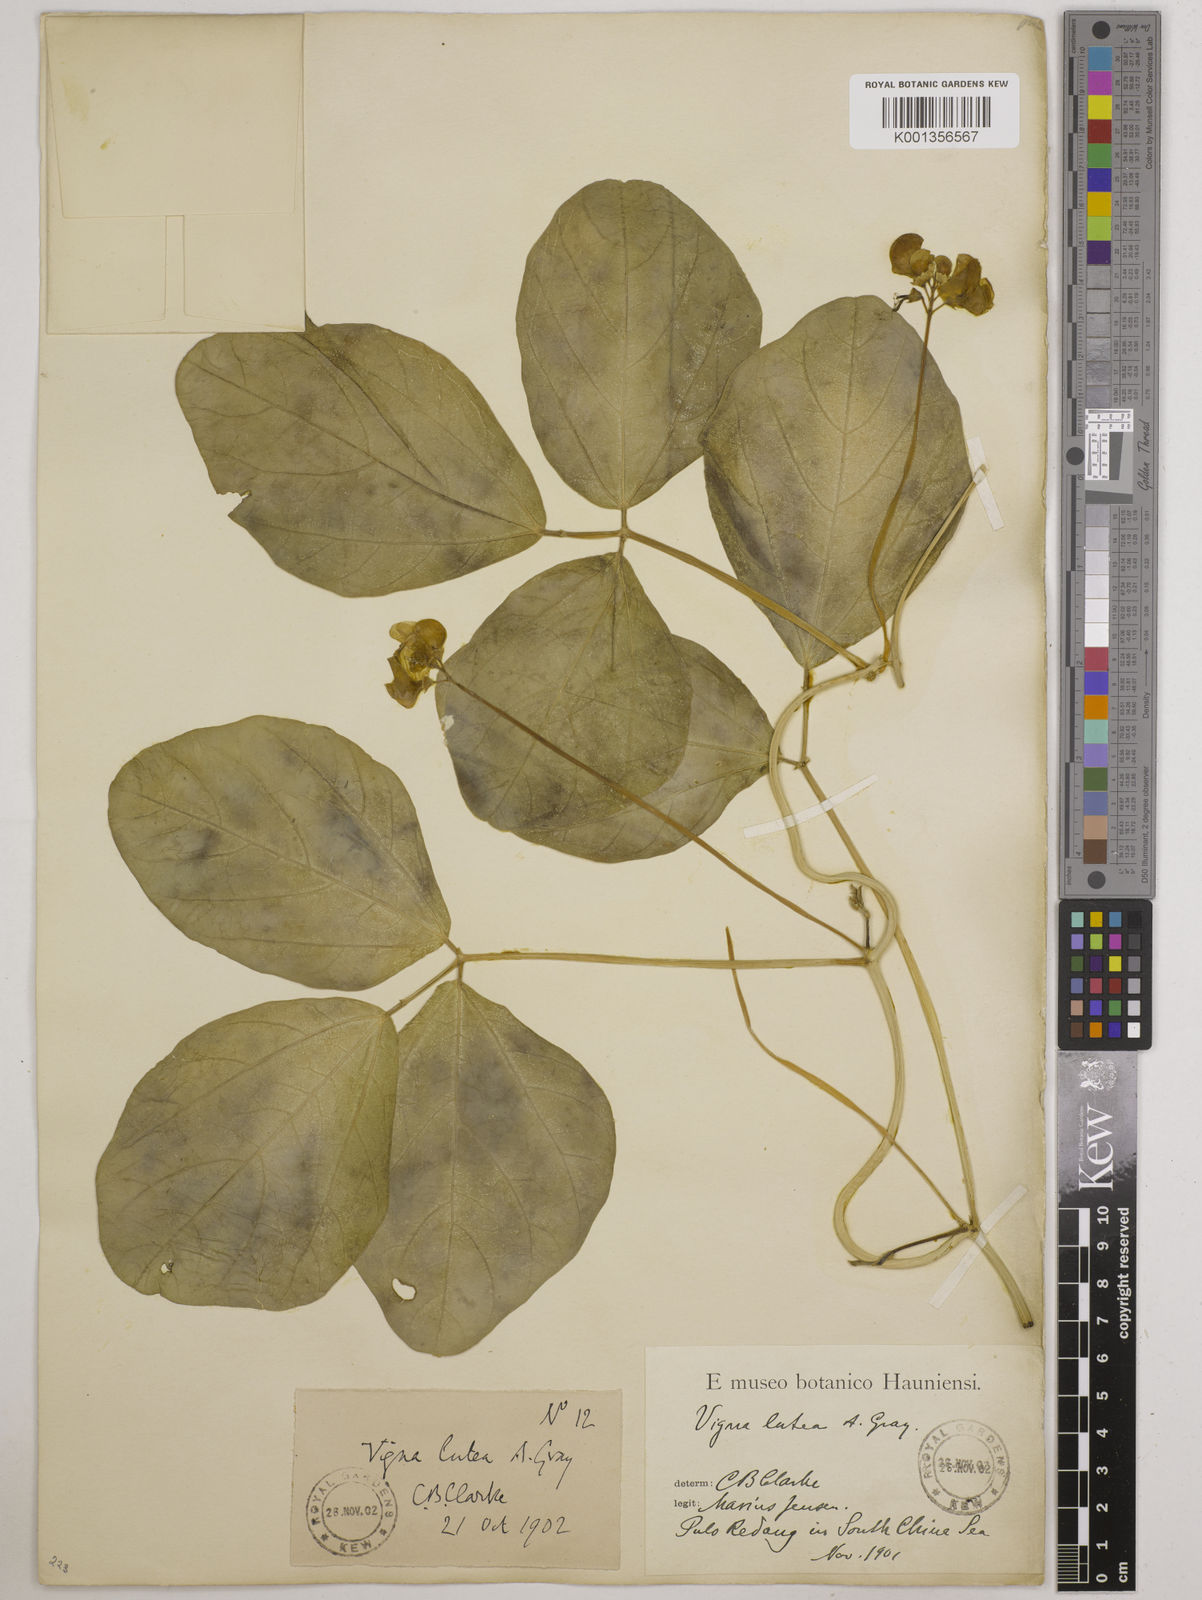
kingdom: Plantae
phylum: Tracheophyta
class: Magnoliopsida
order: Fabales
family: Fabaceae
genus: Vigna
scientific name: Vigna marina
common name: Dune-bean
